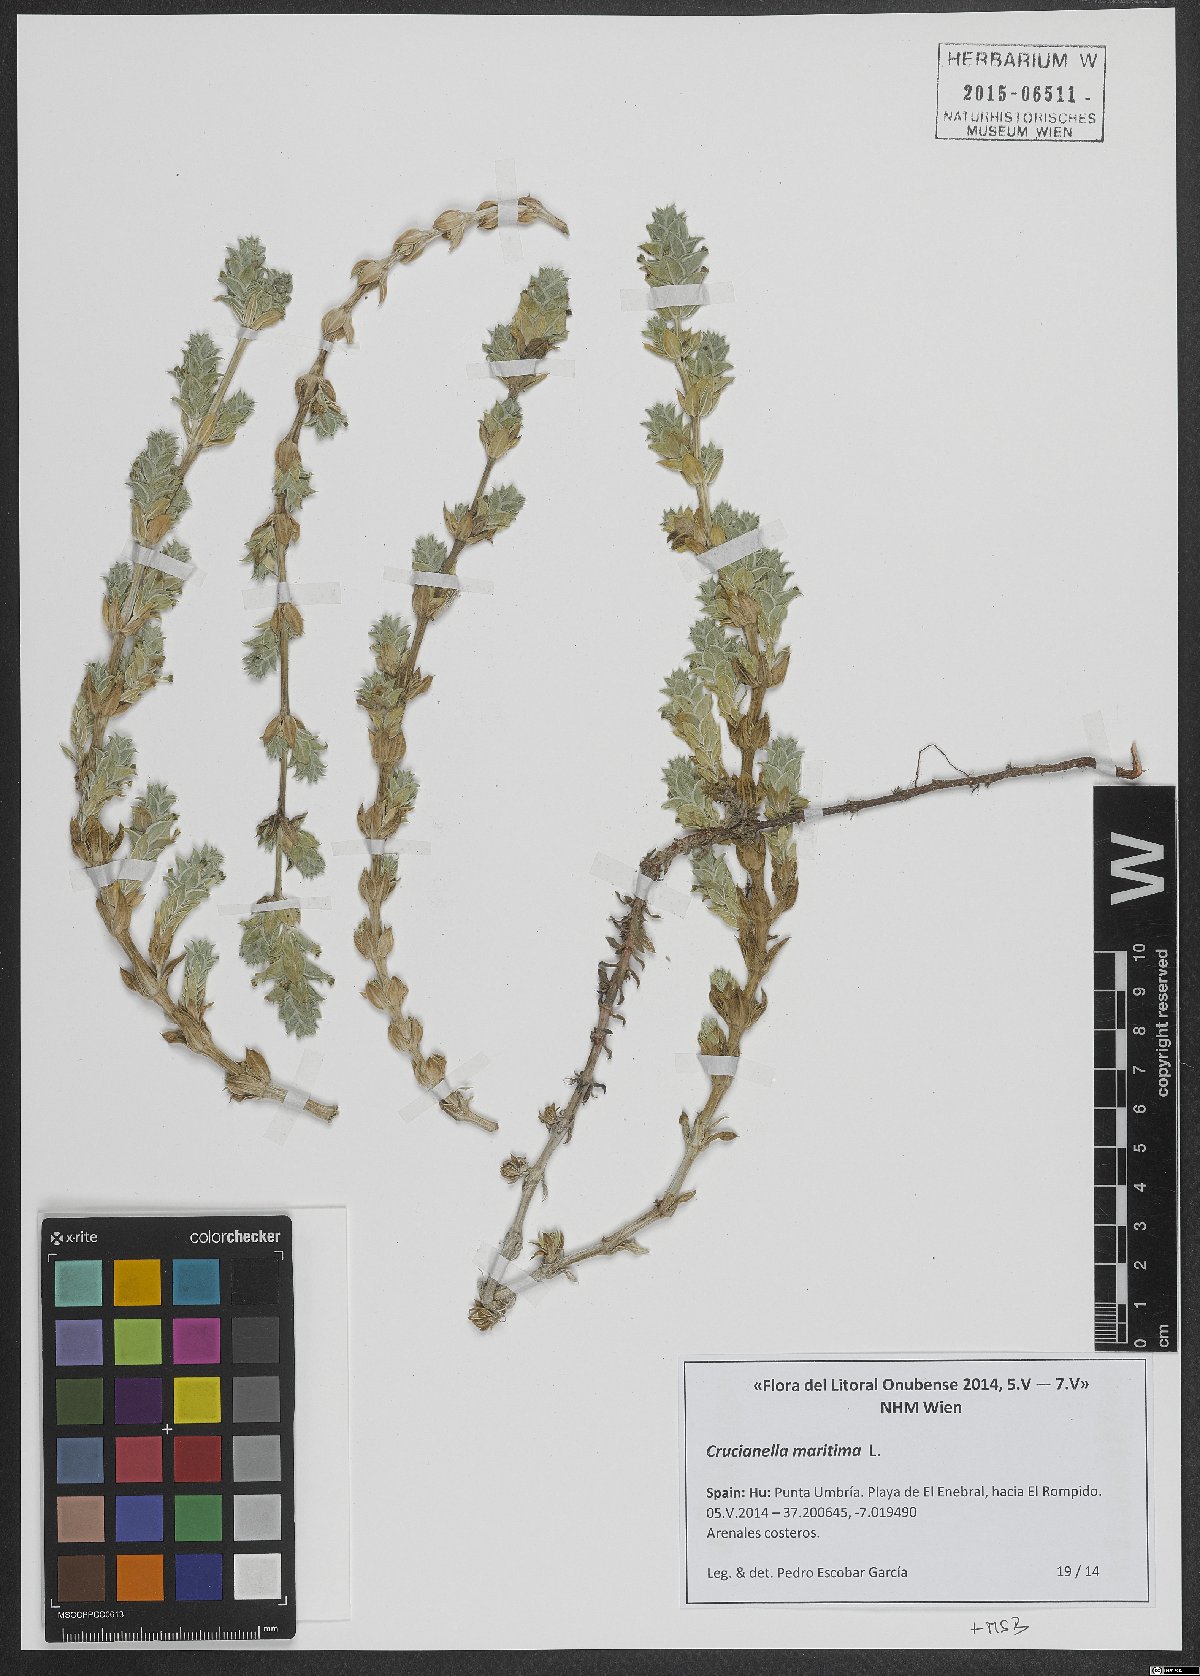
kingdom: Plantae
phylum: Tracheophyta
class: Magnoliopsida
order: Gentianales
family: Rubiaceae
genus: Crucianella
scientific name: Crucianella maritima
